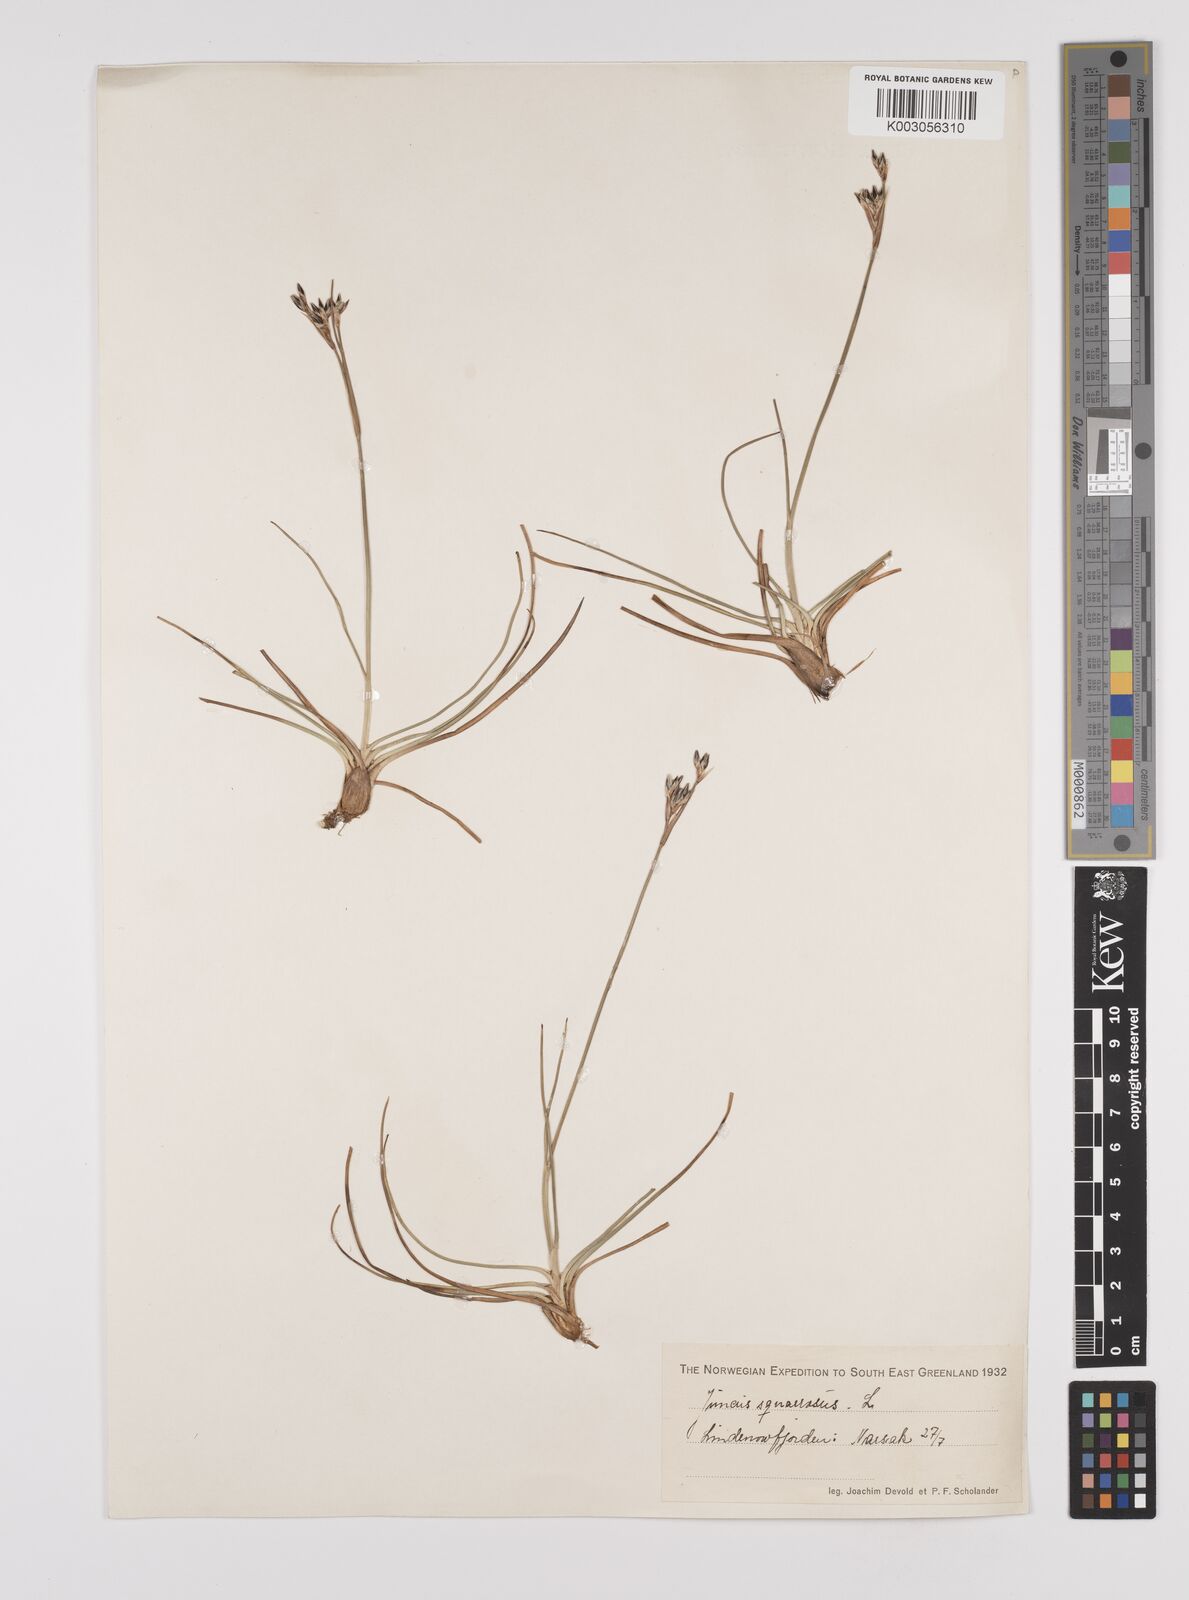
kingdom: Plantae
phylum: Tracheophyta
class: Liliopsida
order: Poales
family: Juncaceae
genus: Juncus
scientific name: Juncus squarrosus
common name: Heath rush
